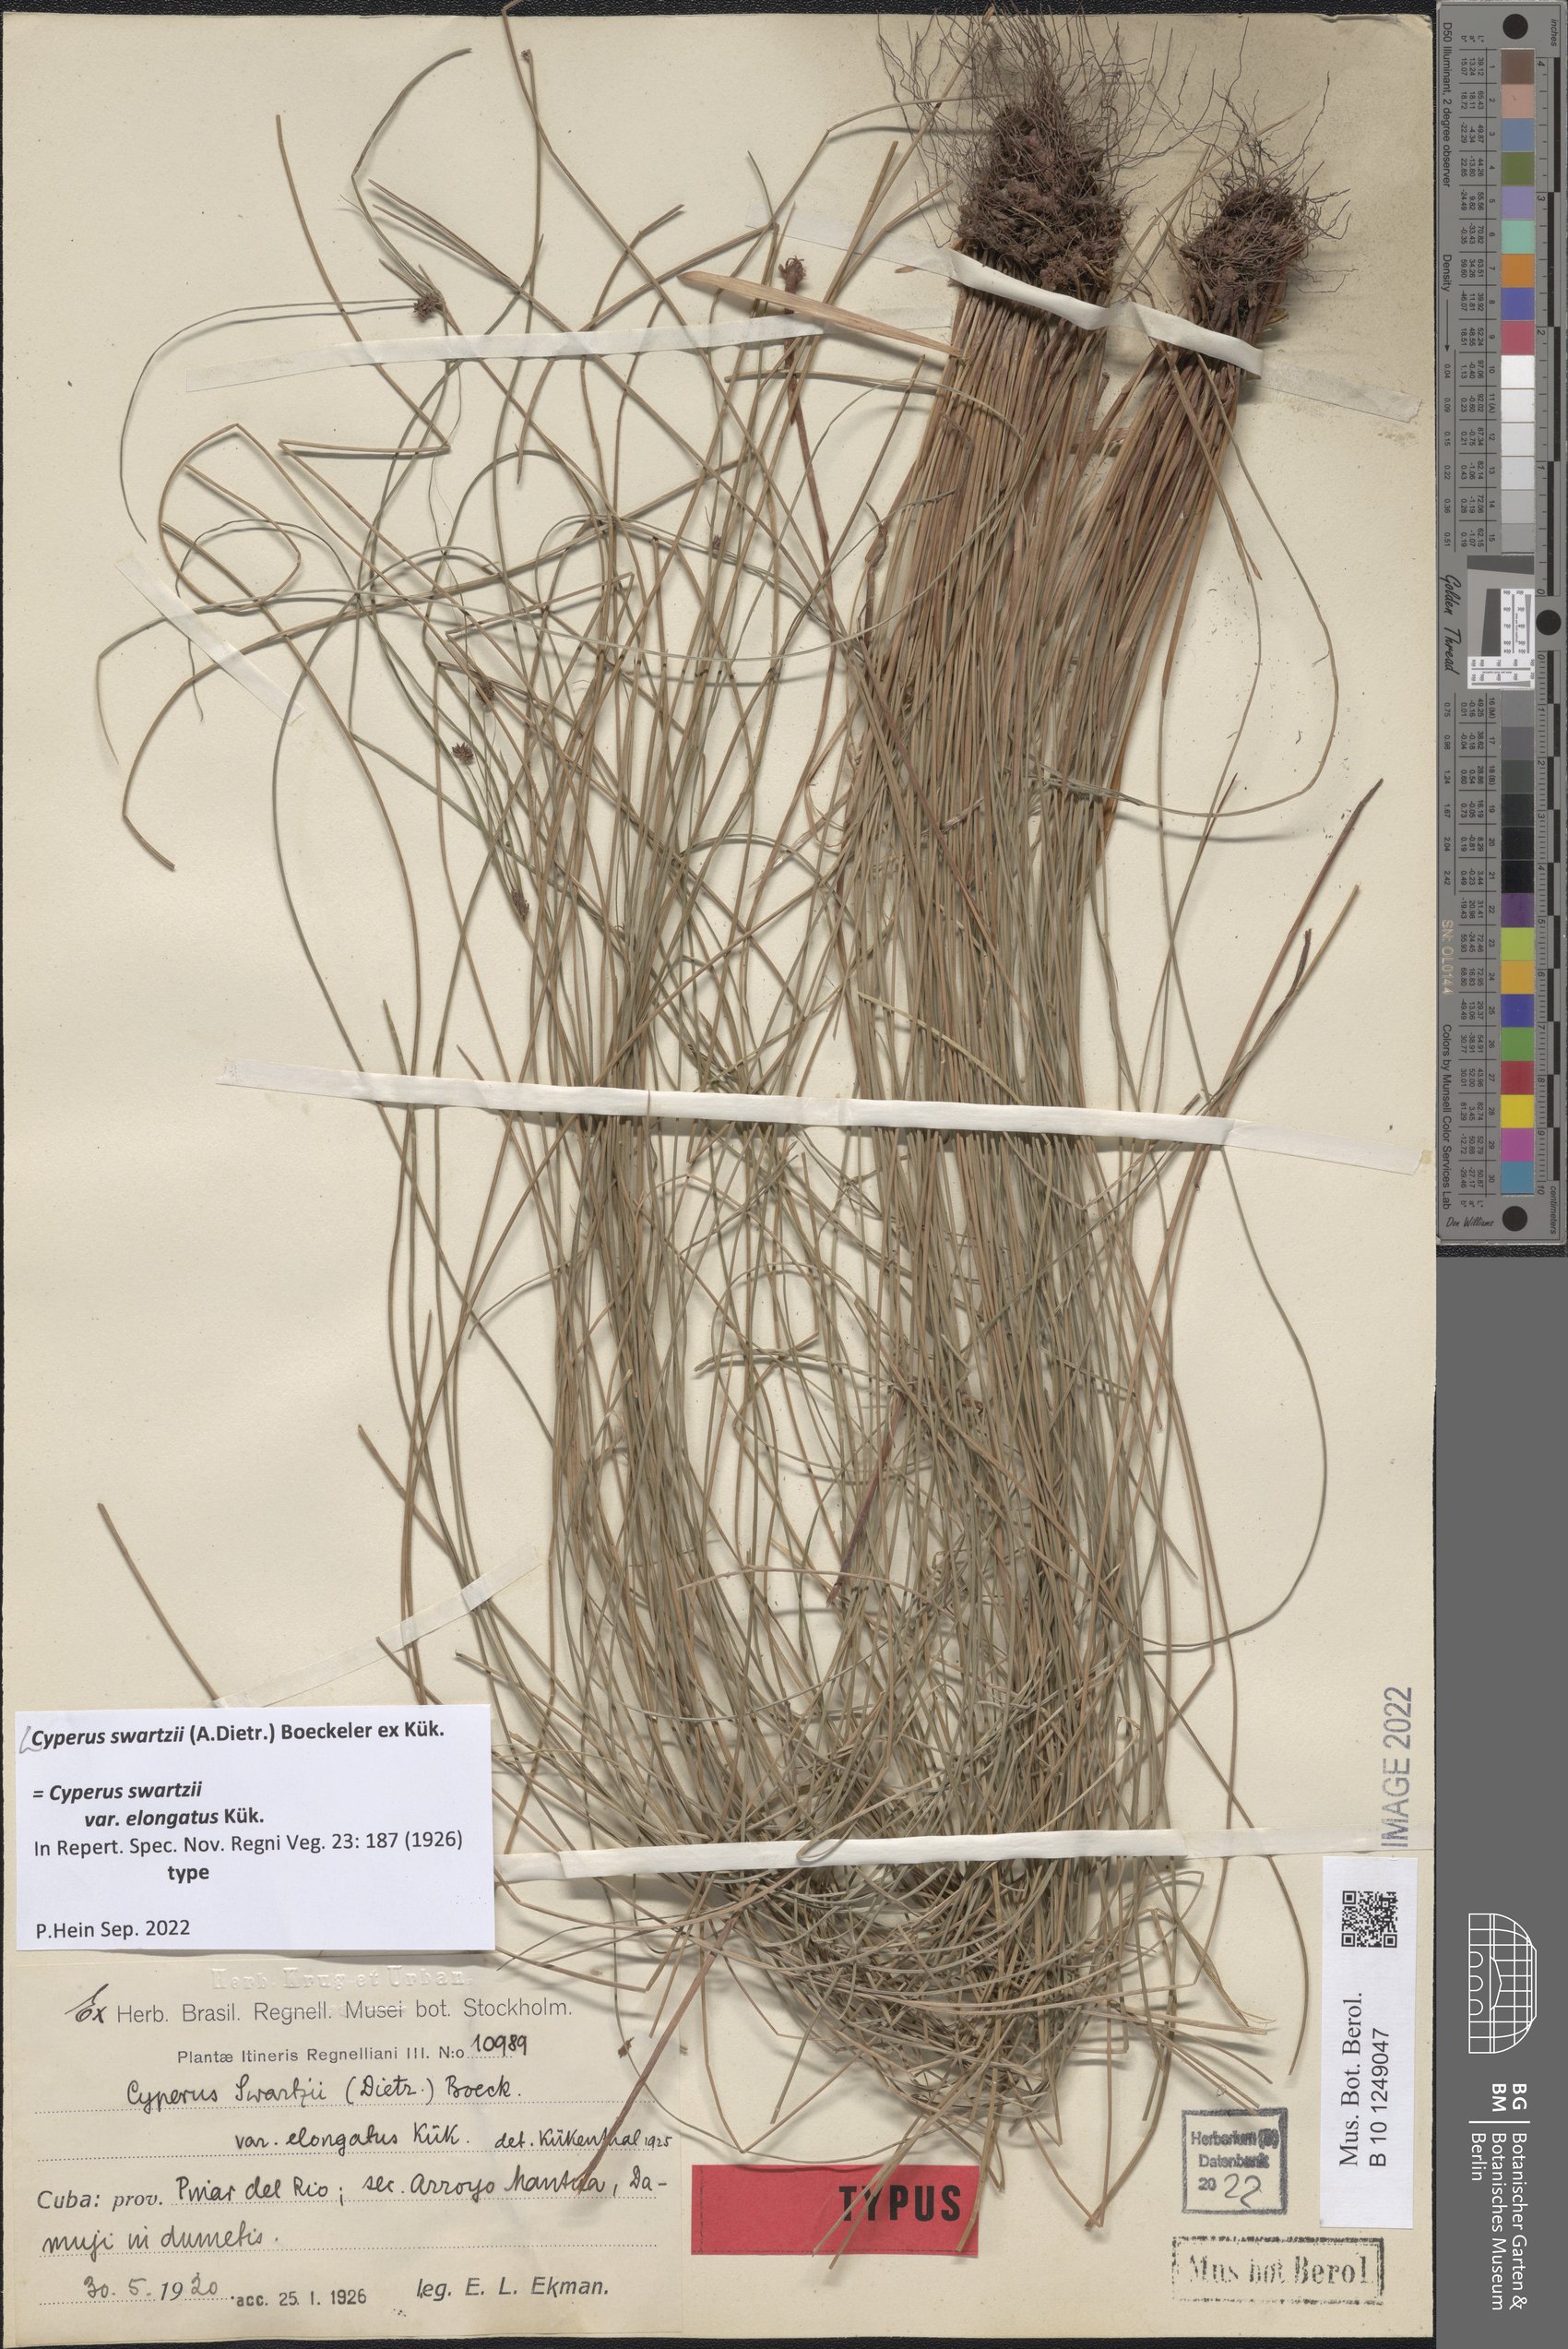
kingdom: Plantae
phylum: Tracheophyta
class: Liliopsida
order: Poales
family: Cyperaceae
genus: Cyperus
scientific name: Cyperus swartzii
